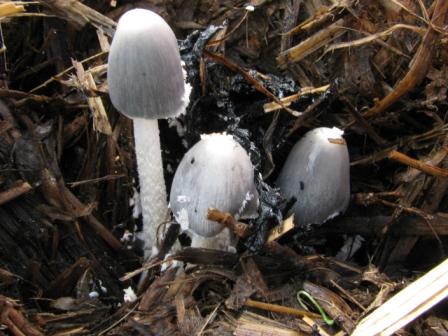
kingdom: Fungi
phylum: Basidiomycota
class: Agaricomycetes
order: Agaricales
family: Psathyrellaceae
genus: Coprinopsis
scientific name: Coprinopsis cinerea
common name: mødding-blækhat
